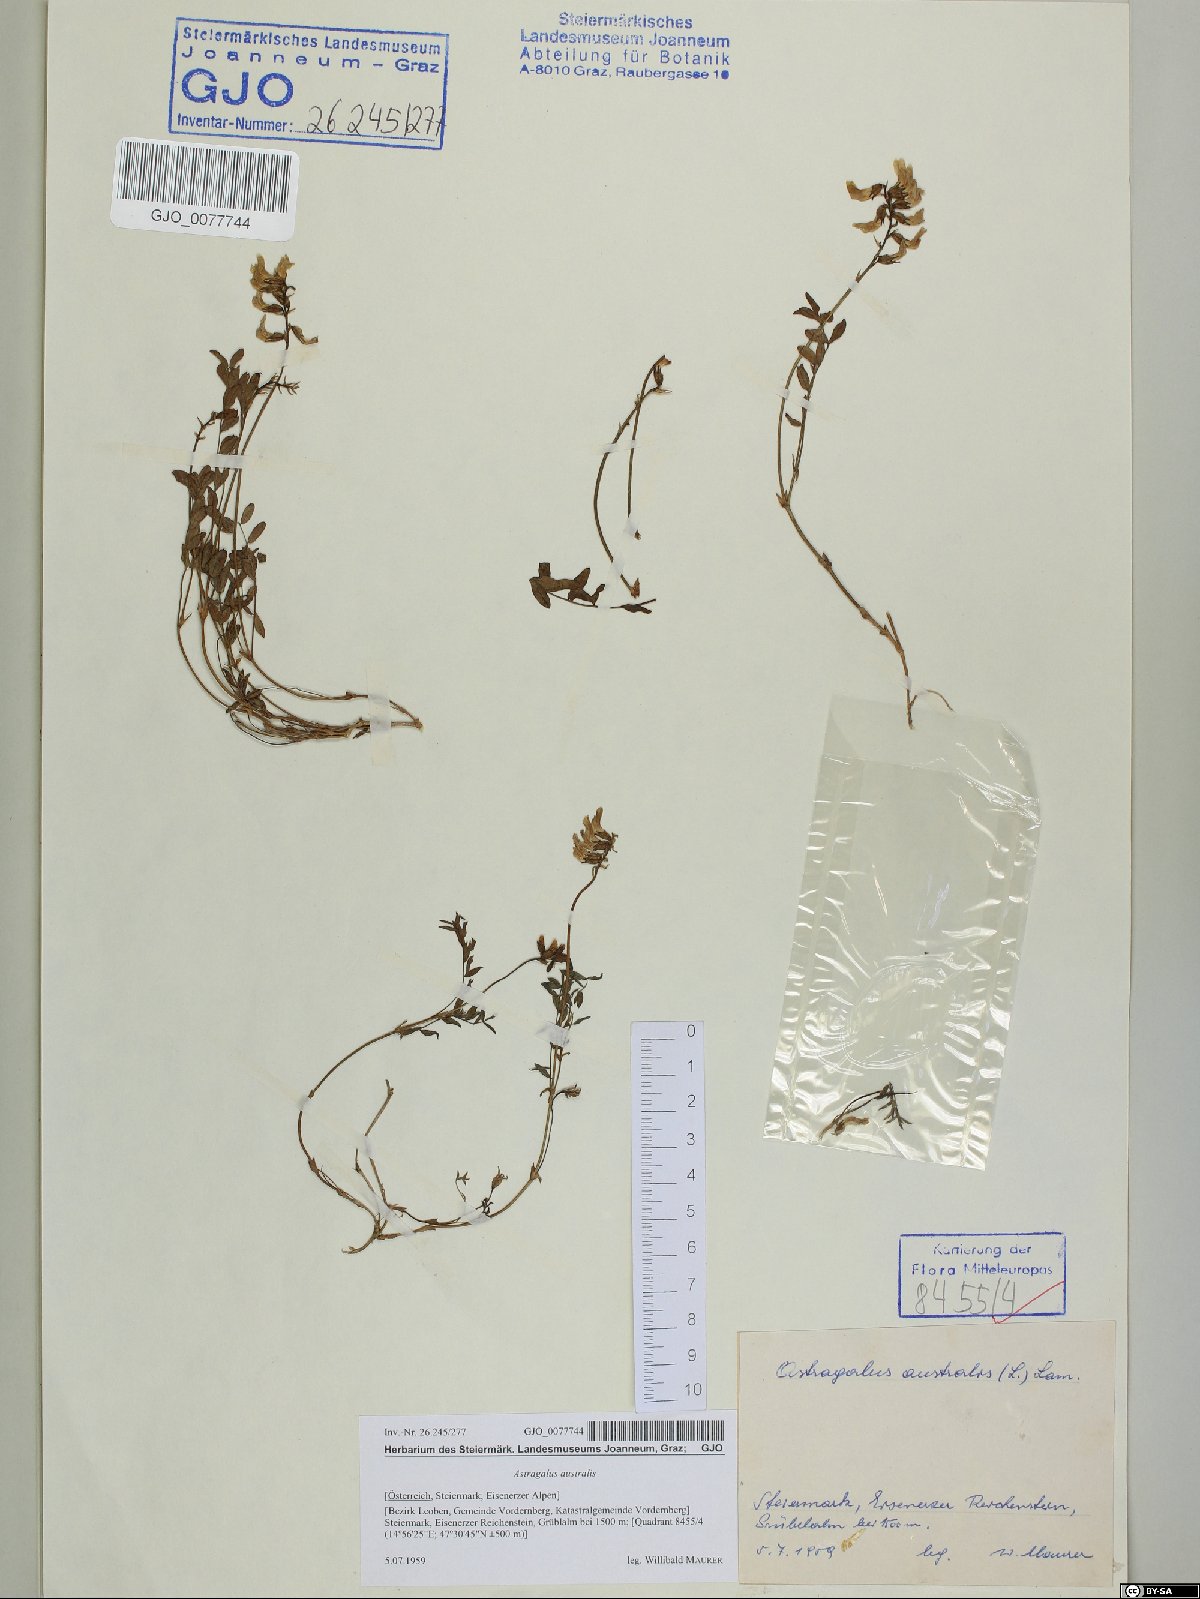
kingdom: Plantae
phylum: Tracheophyta
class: Magnoliopsida
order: Fabales
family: Fabaceae
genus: Astragalus
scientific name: Astragalus australis
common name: Indian milk-vetch
